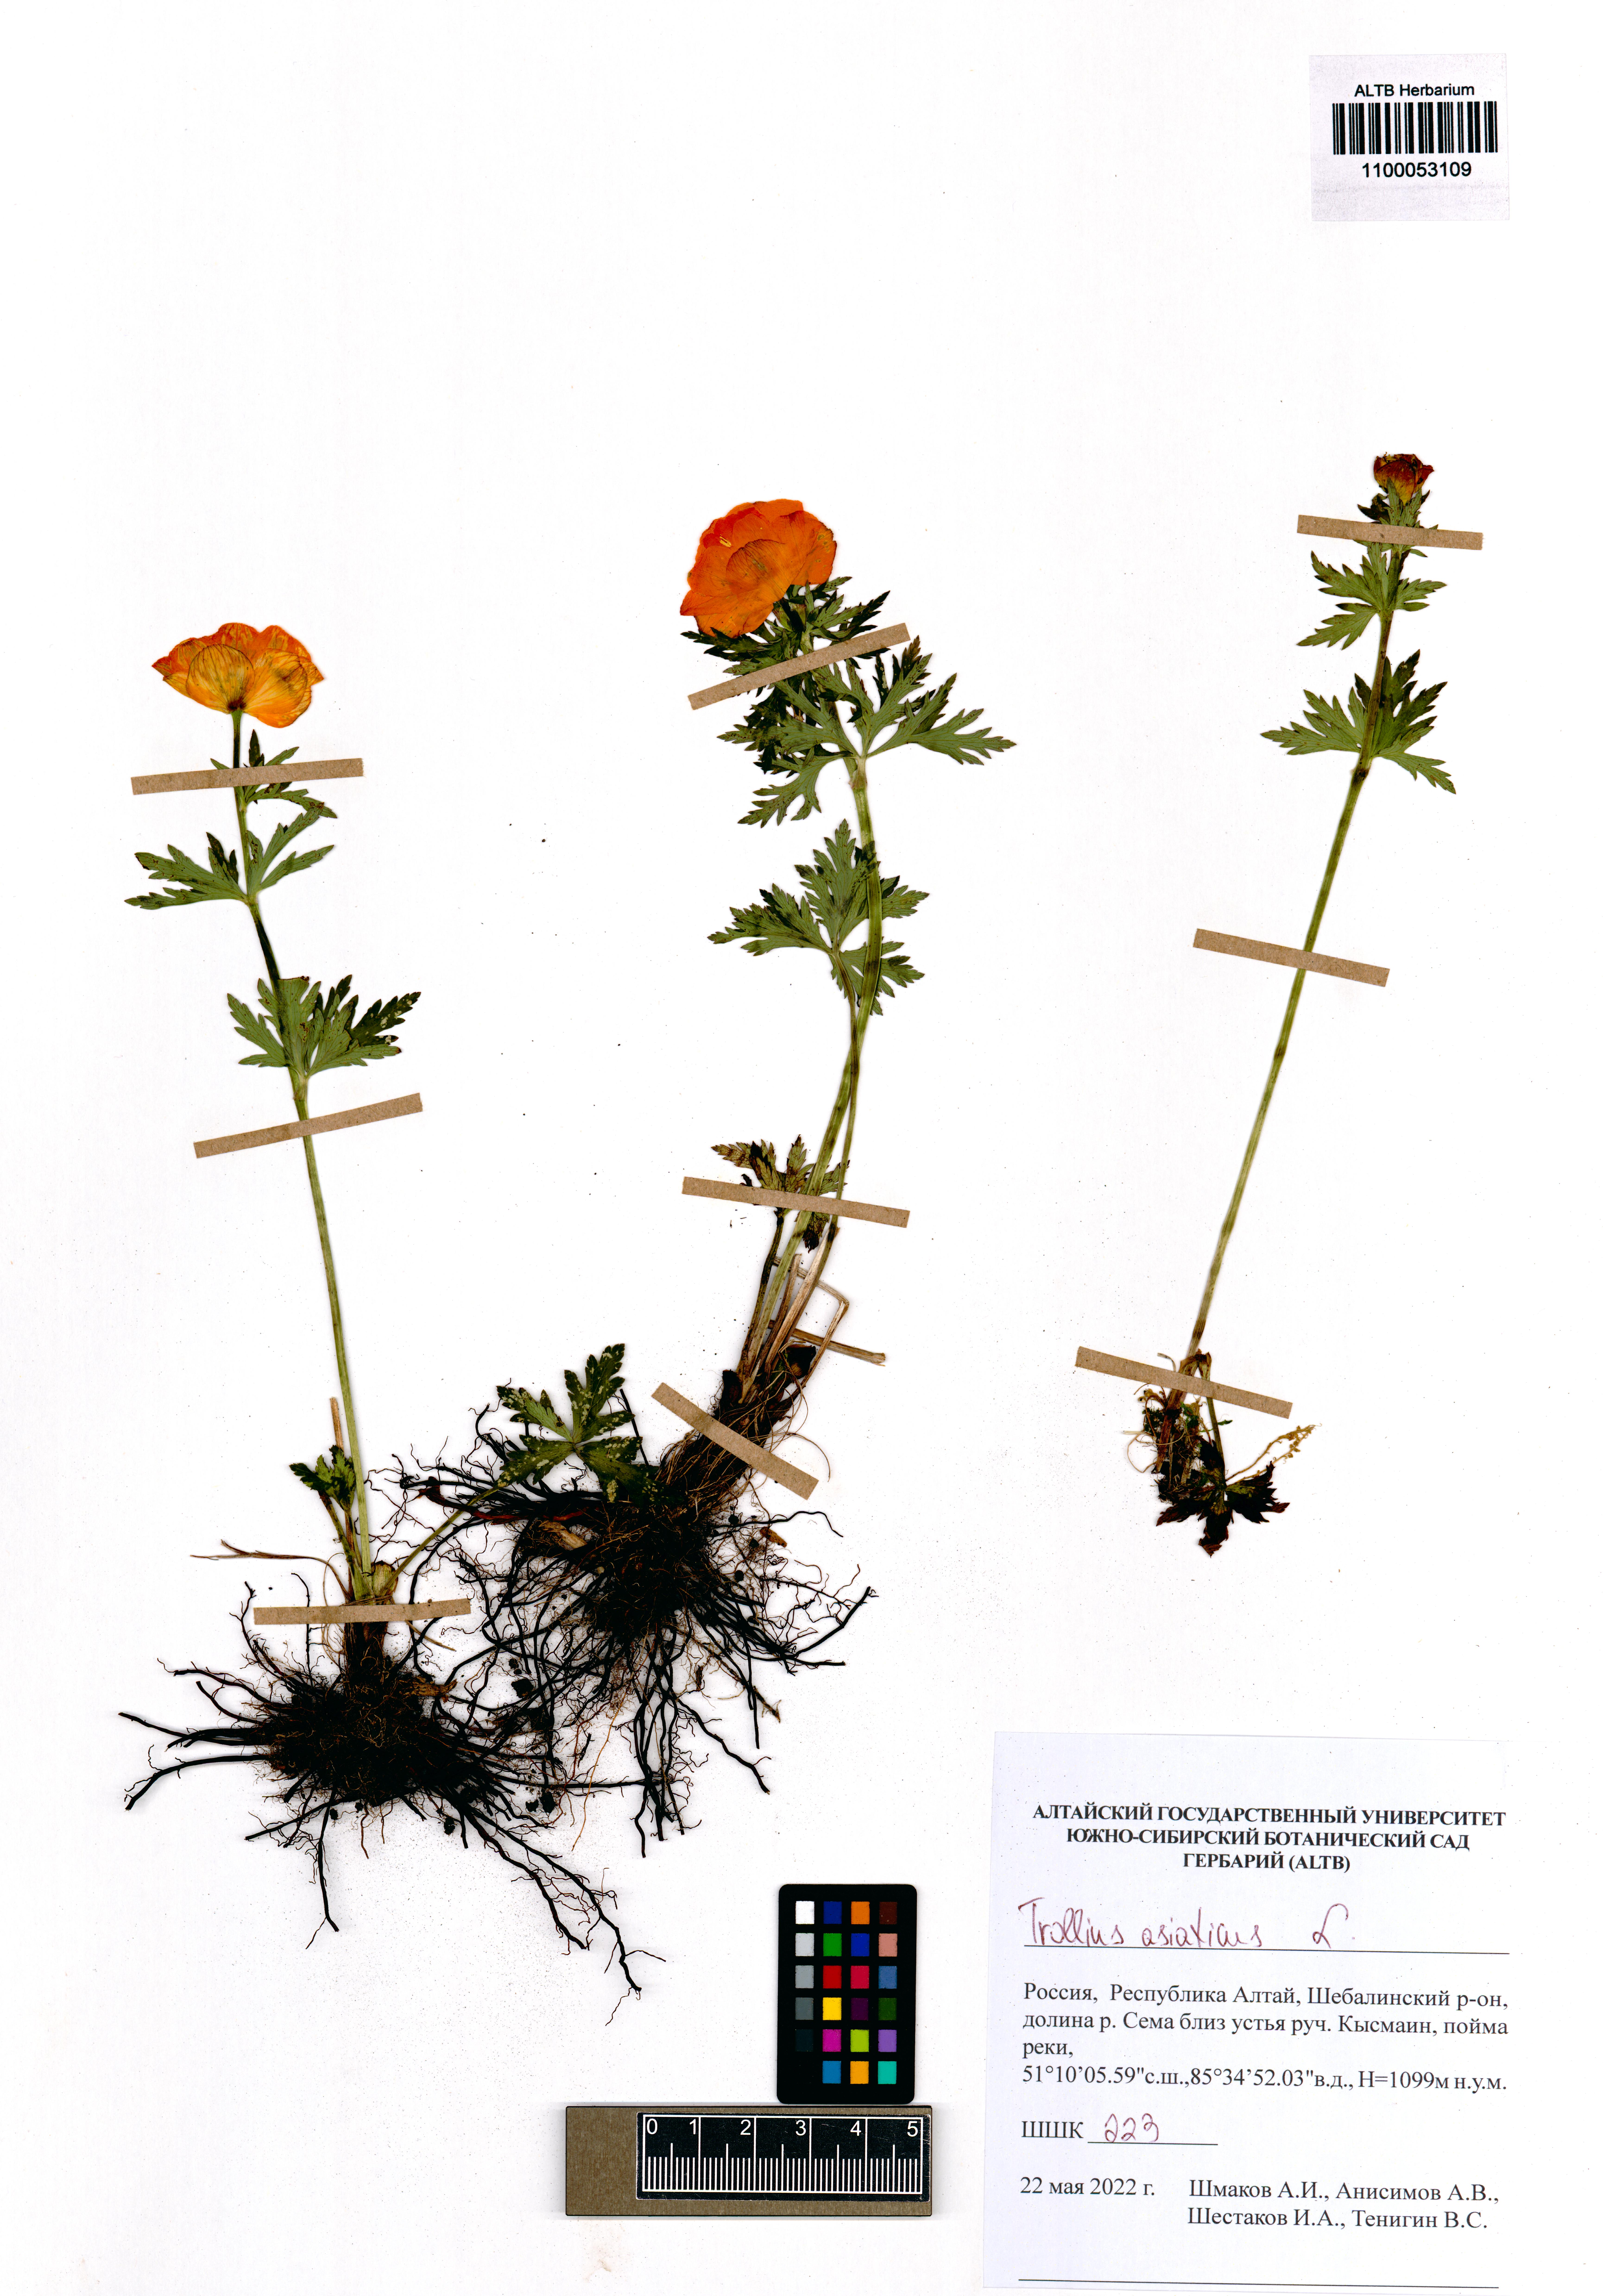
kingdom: Plantae
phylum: Tracheophyta
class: Magnoliopsida
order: Ranunculales
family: Ranunculaceae
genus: Trollius
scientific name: Trollius asiaticus
